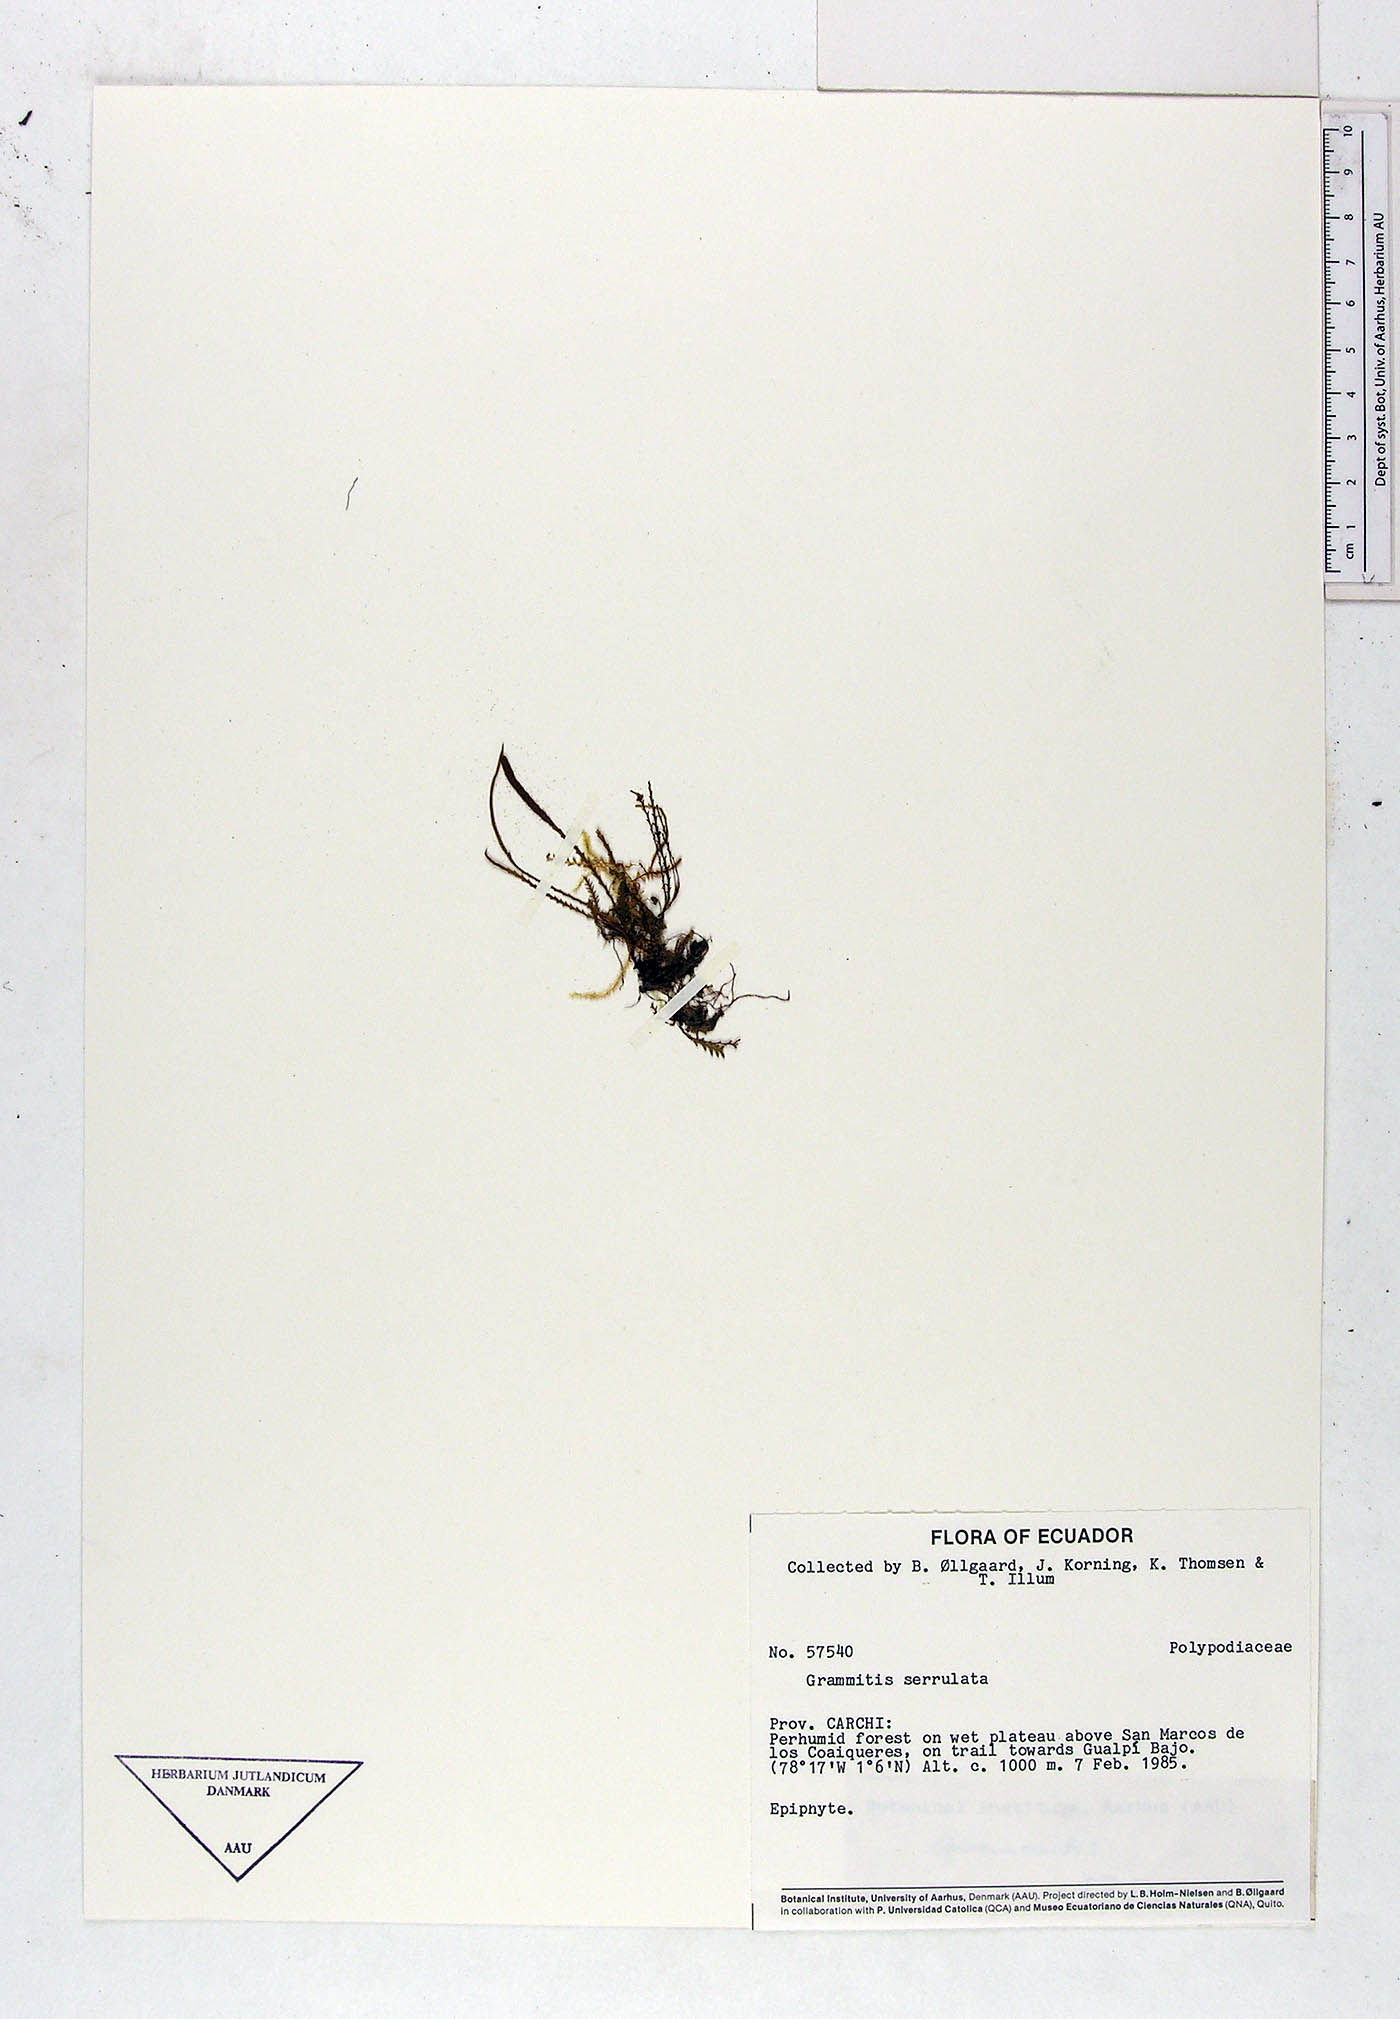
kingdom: Plantae
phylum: Tracheophyta
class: Polypodiopsida
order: Polypodiales
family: Polypodiaceae
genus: Cochlidium
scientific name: Cochlidium serrulatum
